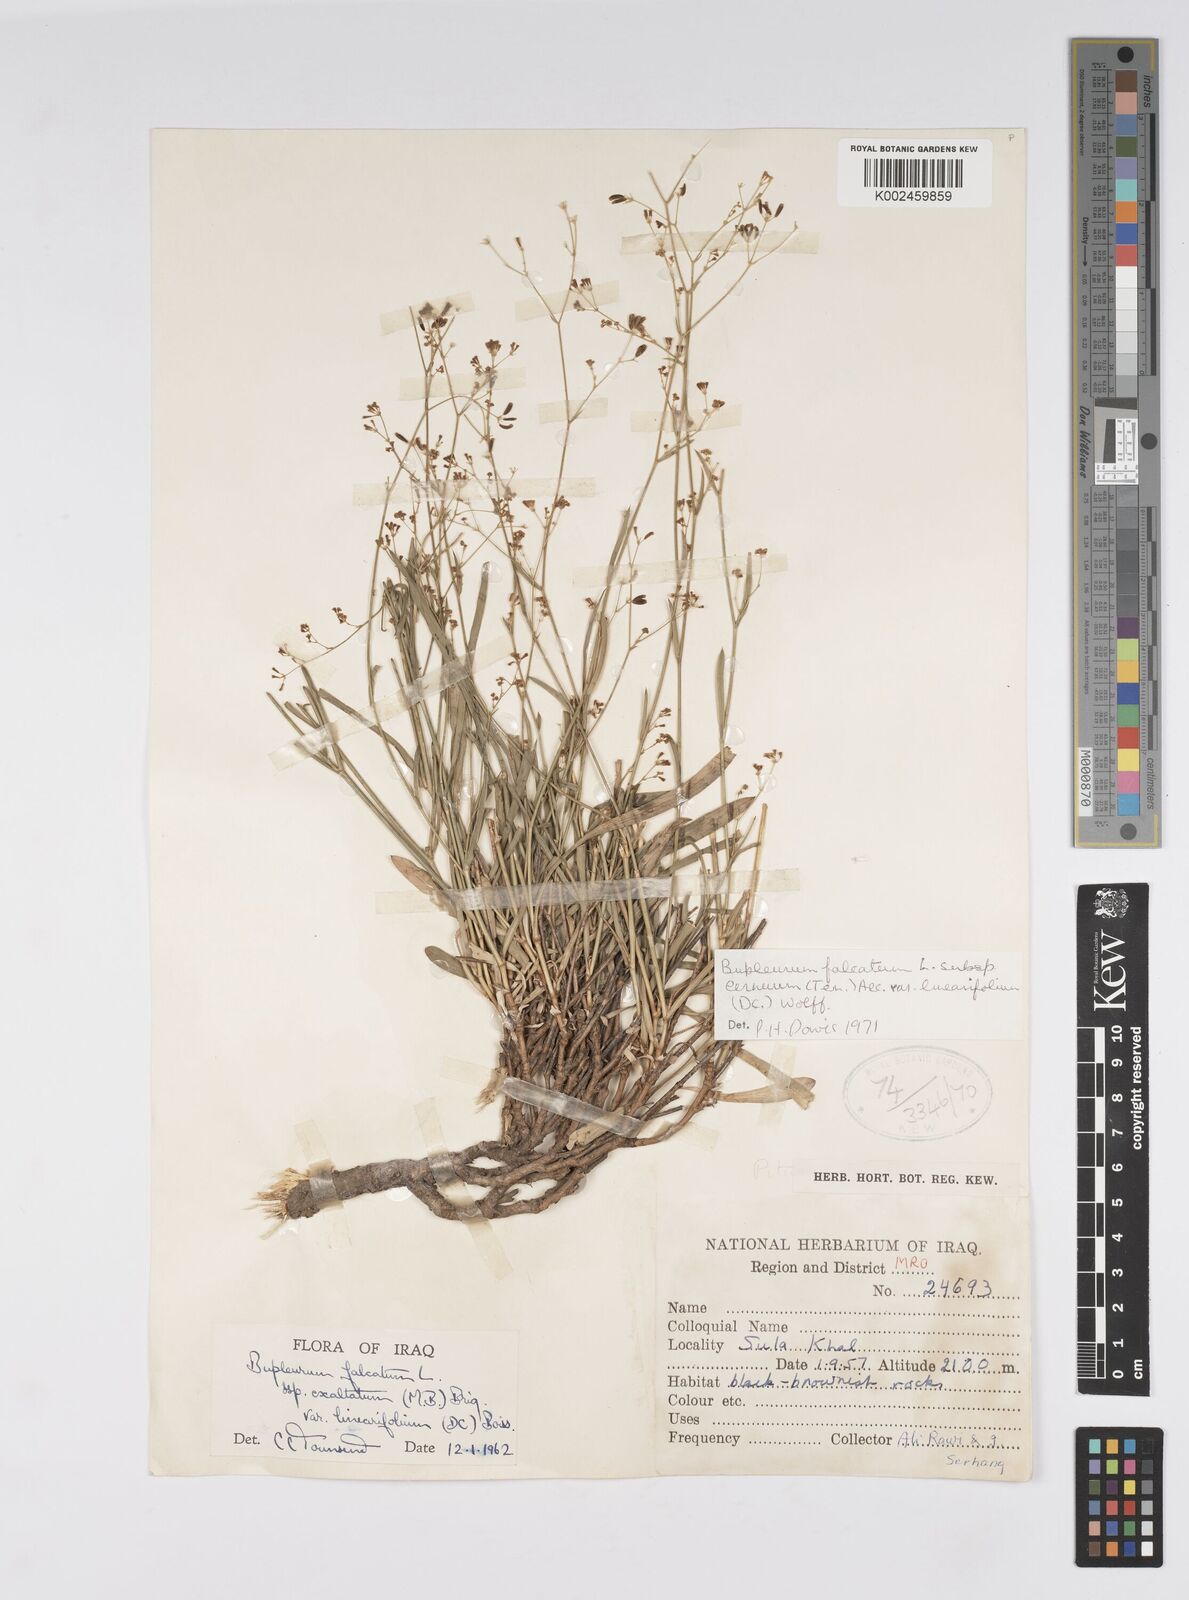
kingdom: Plantae
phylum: Tracheophyta
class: Magnoliopsida
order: Apiales
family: Apiaceae
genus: Bupleurum
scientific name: Bupleurum falcatum
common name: Sickle-leaved hare's-ear
